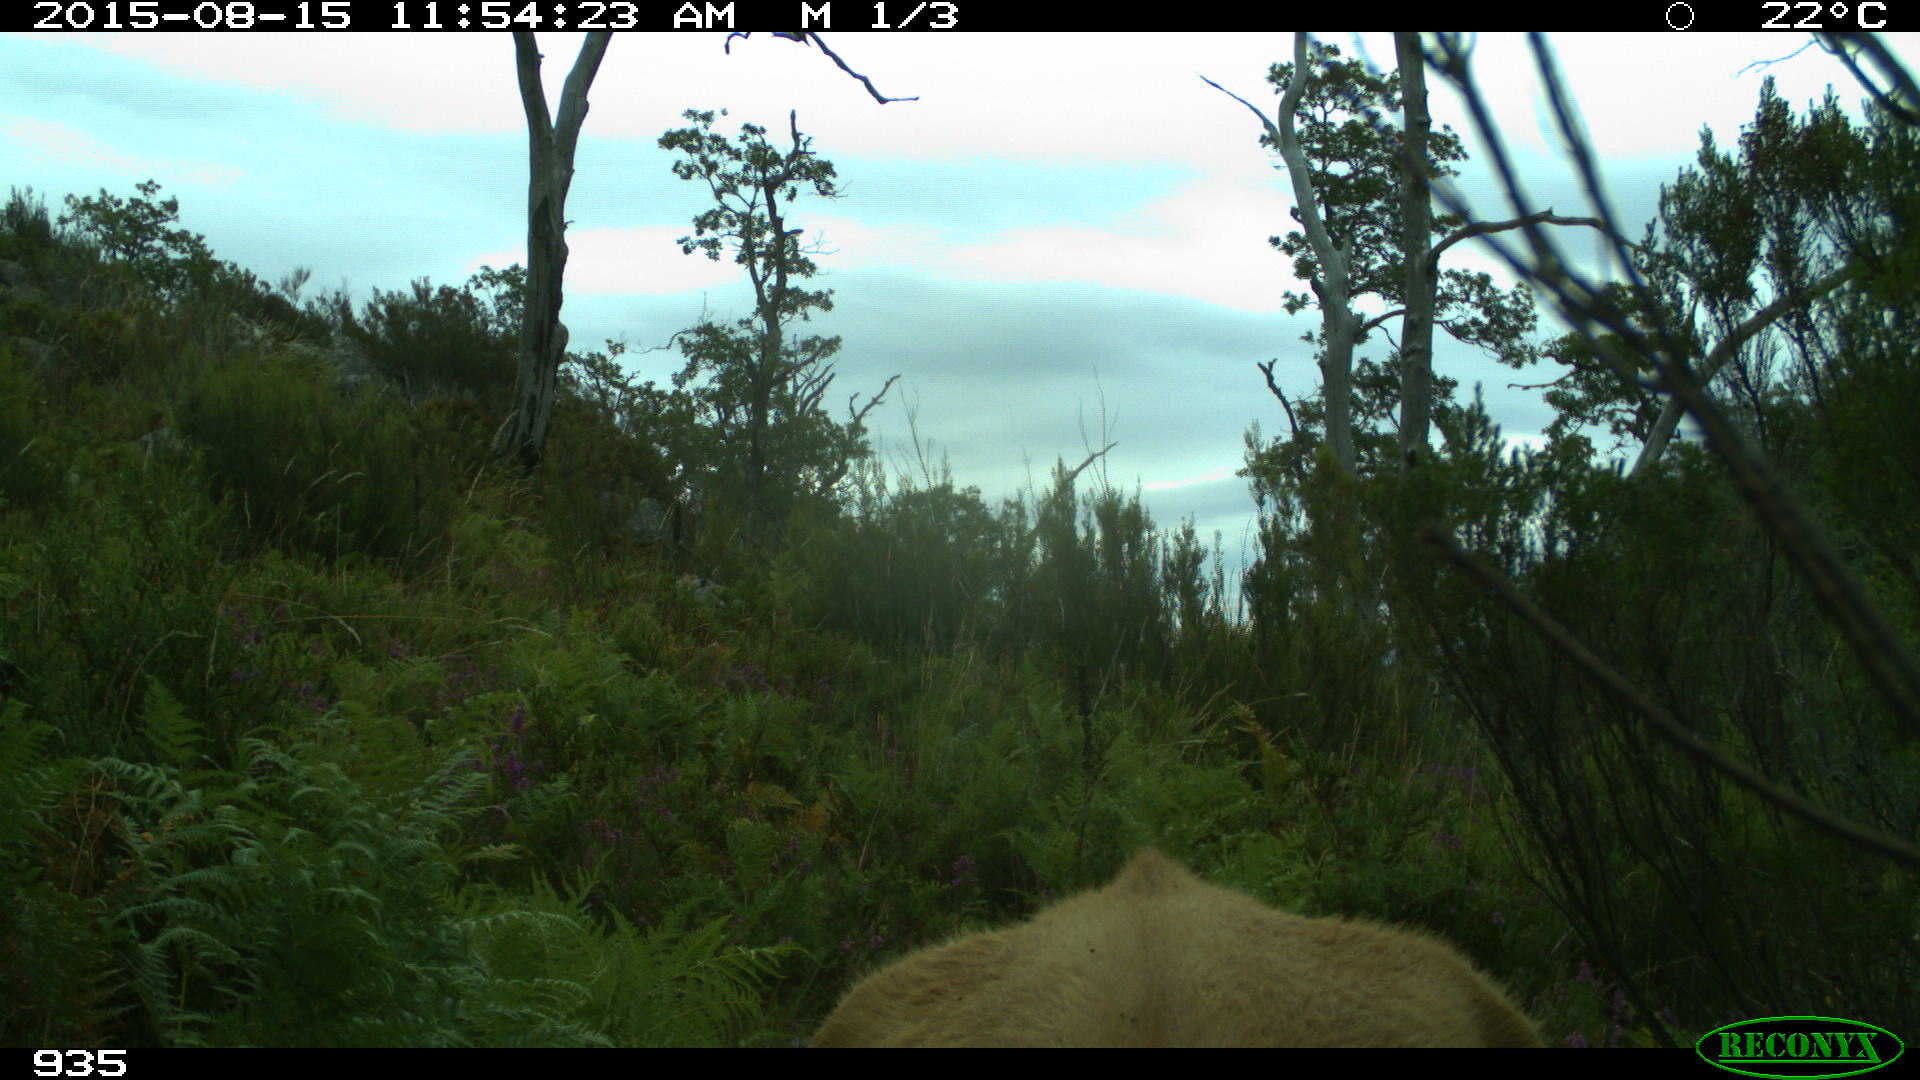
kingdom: Animalia
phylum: Chordata
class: Mammalia
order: Artiodactyla
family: Bovidae
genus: Bos
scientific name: Bos taurus
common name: Domesticated cattle
